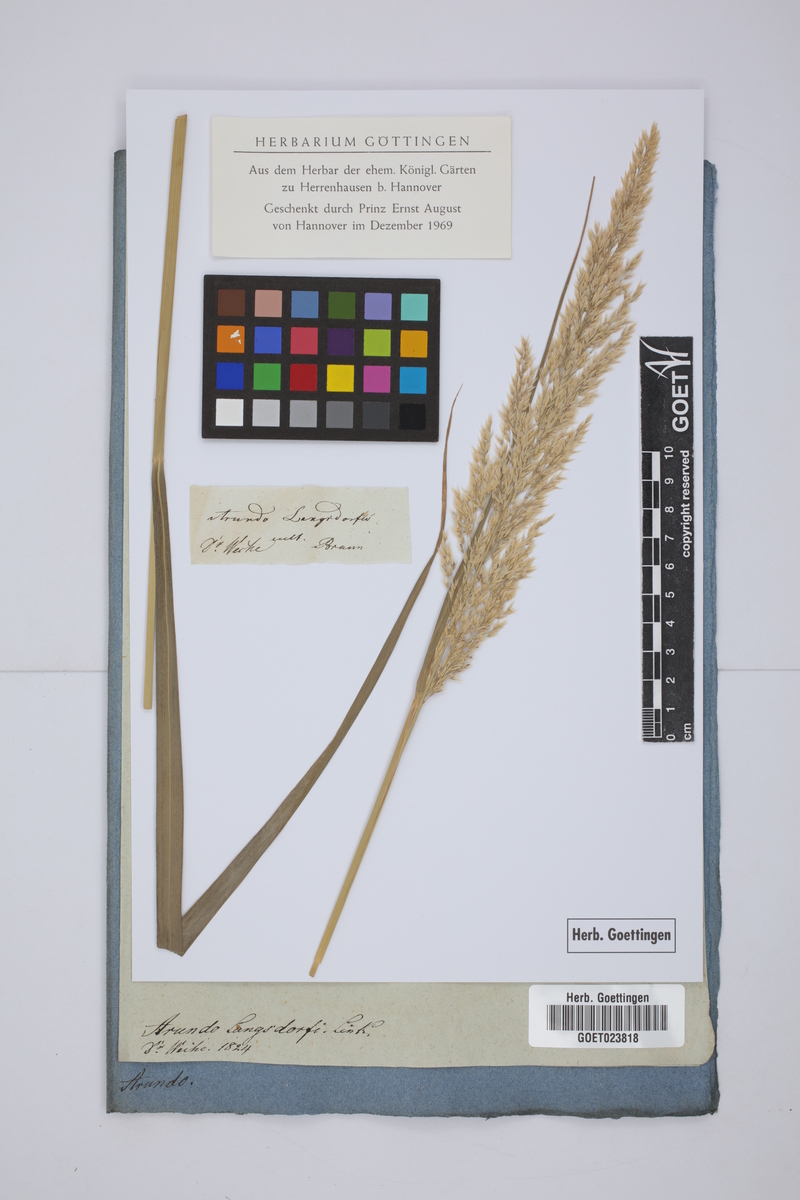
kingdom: Plantae
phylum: Tracheophyta
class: Liliopsida
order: Poales
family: Poaceae
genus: Calamagrostis
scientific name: Calamagrostis purpurea
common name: Scandinavian small-reed
